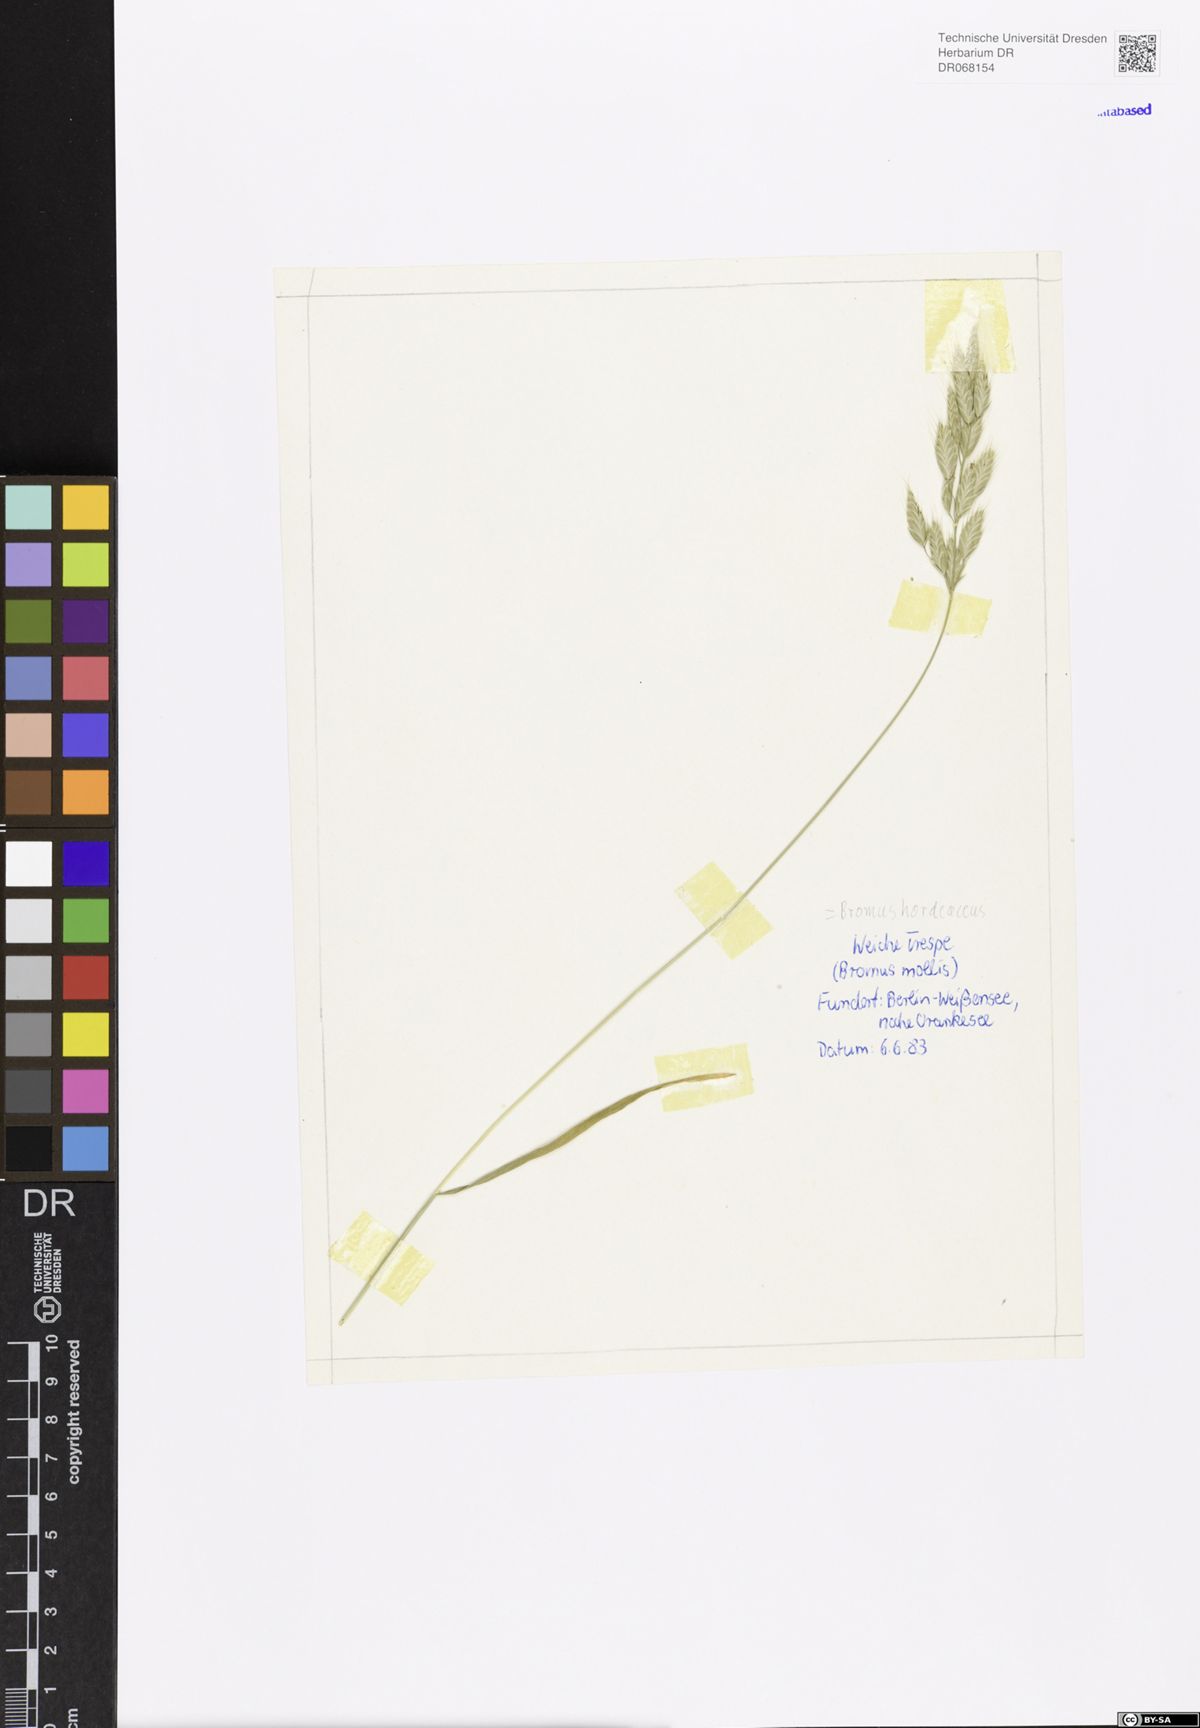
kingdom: Plantae
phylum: Tracheophyta
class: Liliopsida
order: Poales
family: Poaceae
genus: Bromus
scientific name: Bromus hordeaceus
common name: Soft brome
